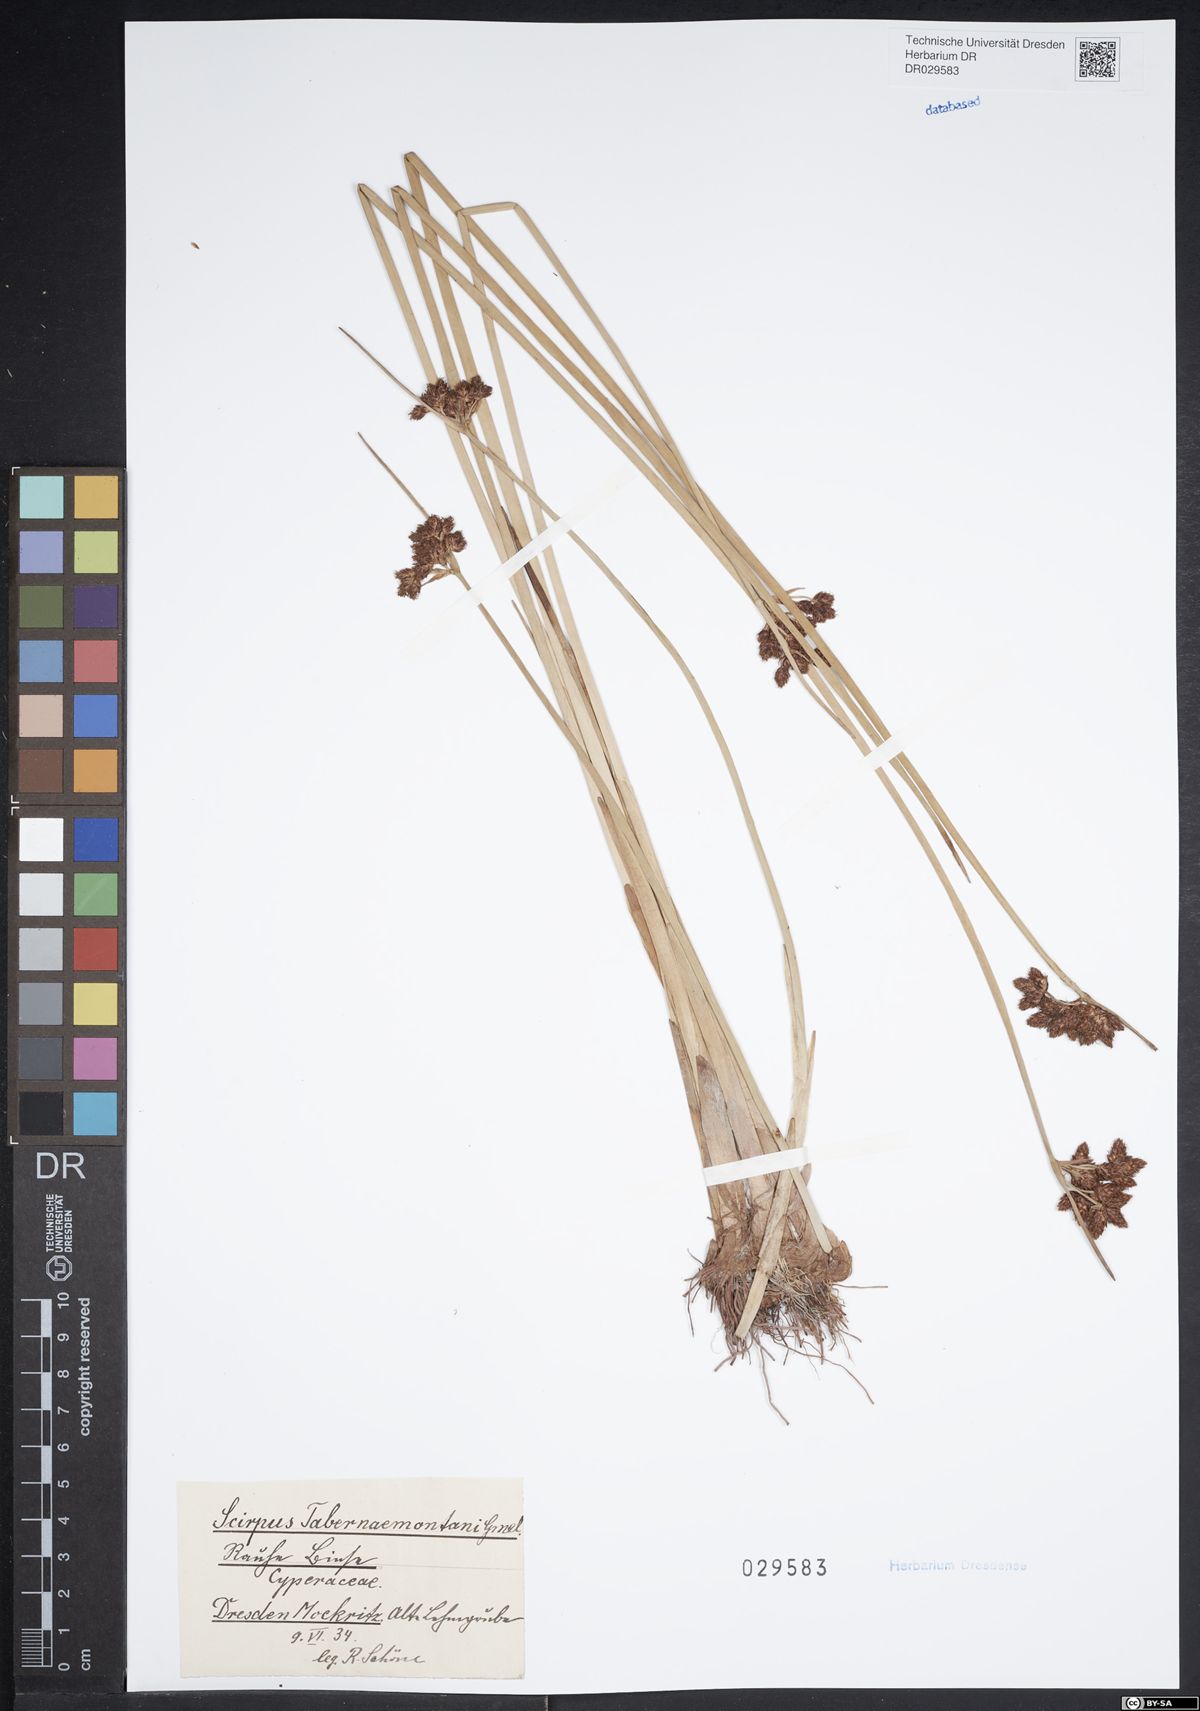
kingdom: Plantae
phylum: Tracheophyta
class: Liliopsida
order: Poales
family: Cyperaceae
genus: Schoenoplectus
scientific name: Schoenoplectus tabernaemontani
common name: Grey club-rush
